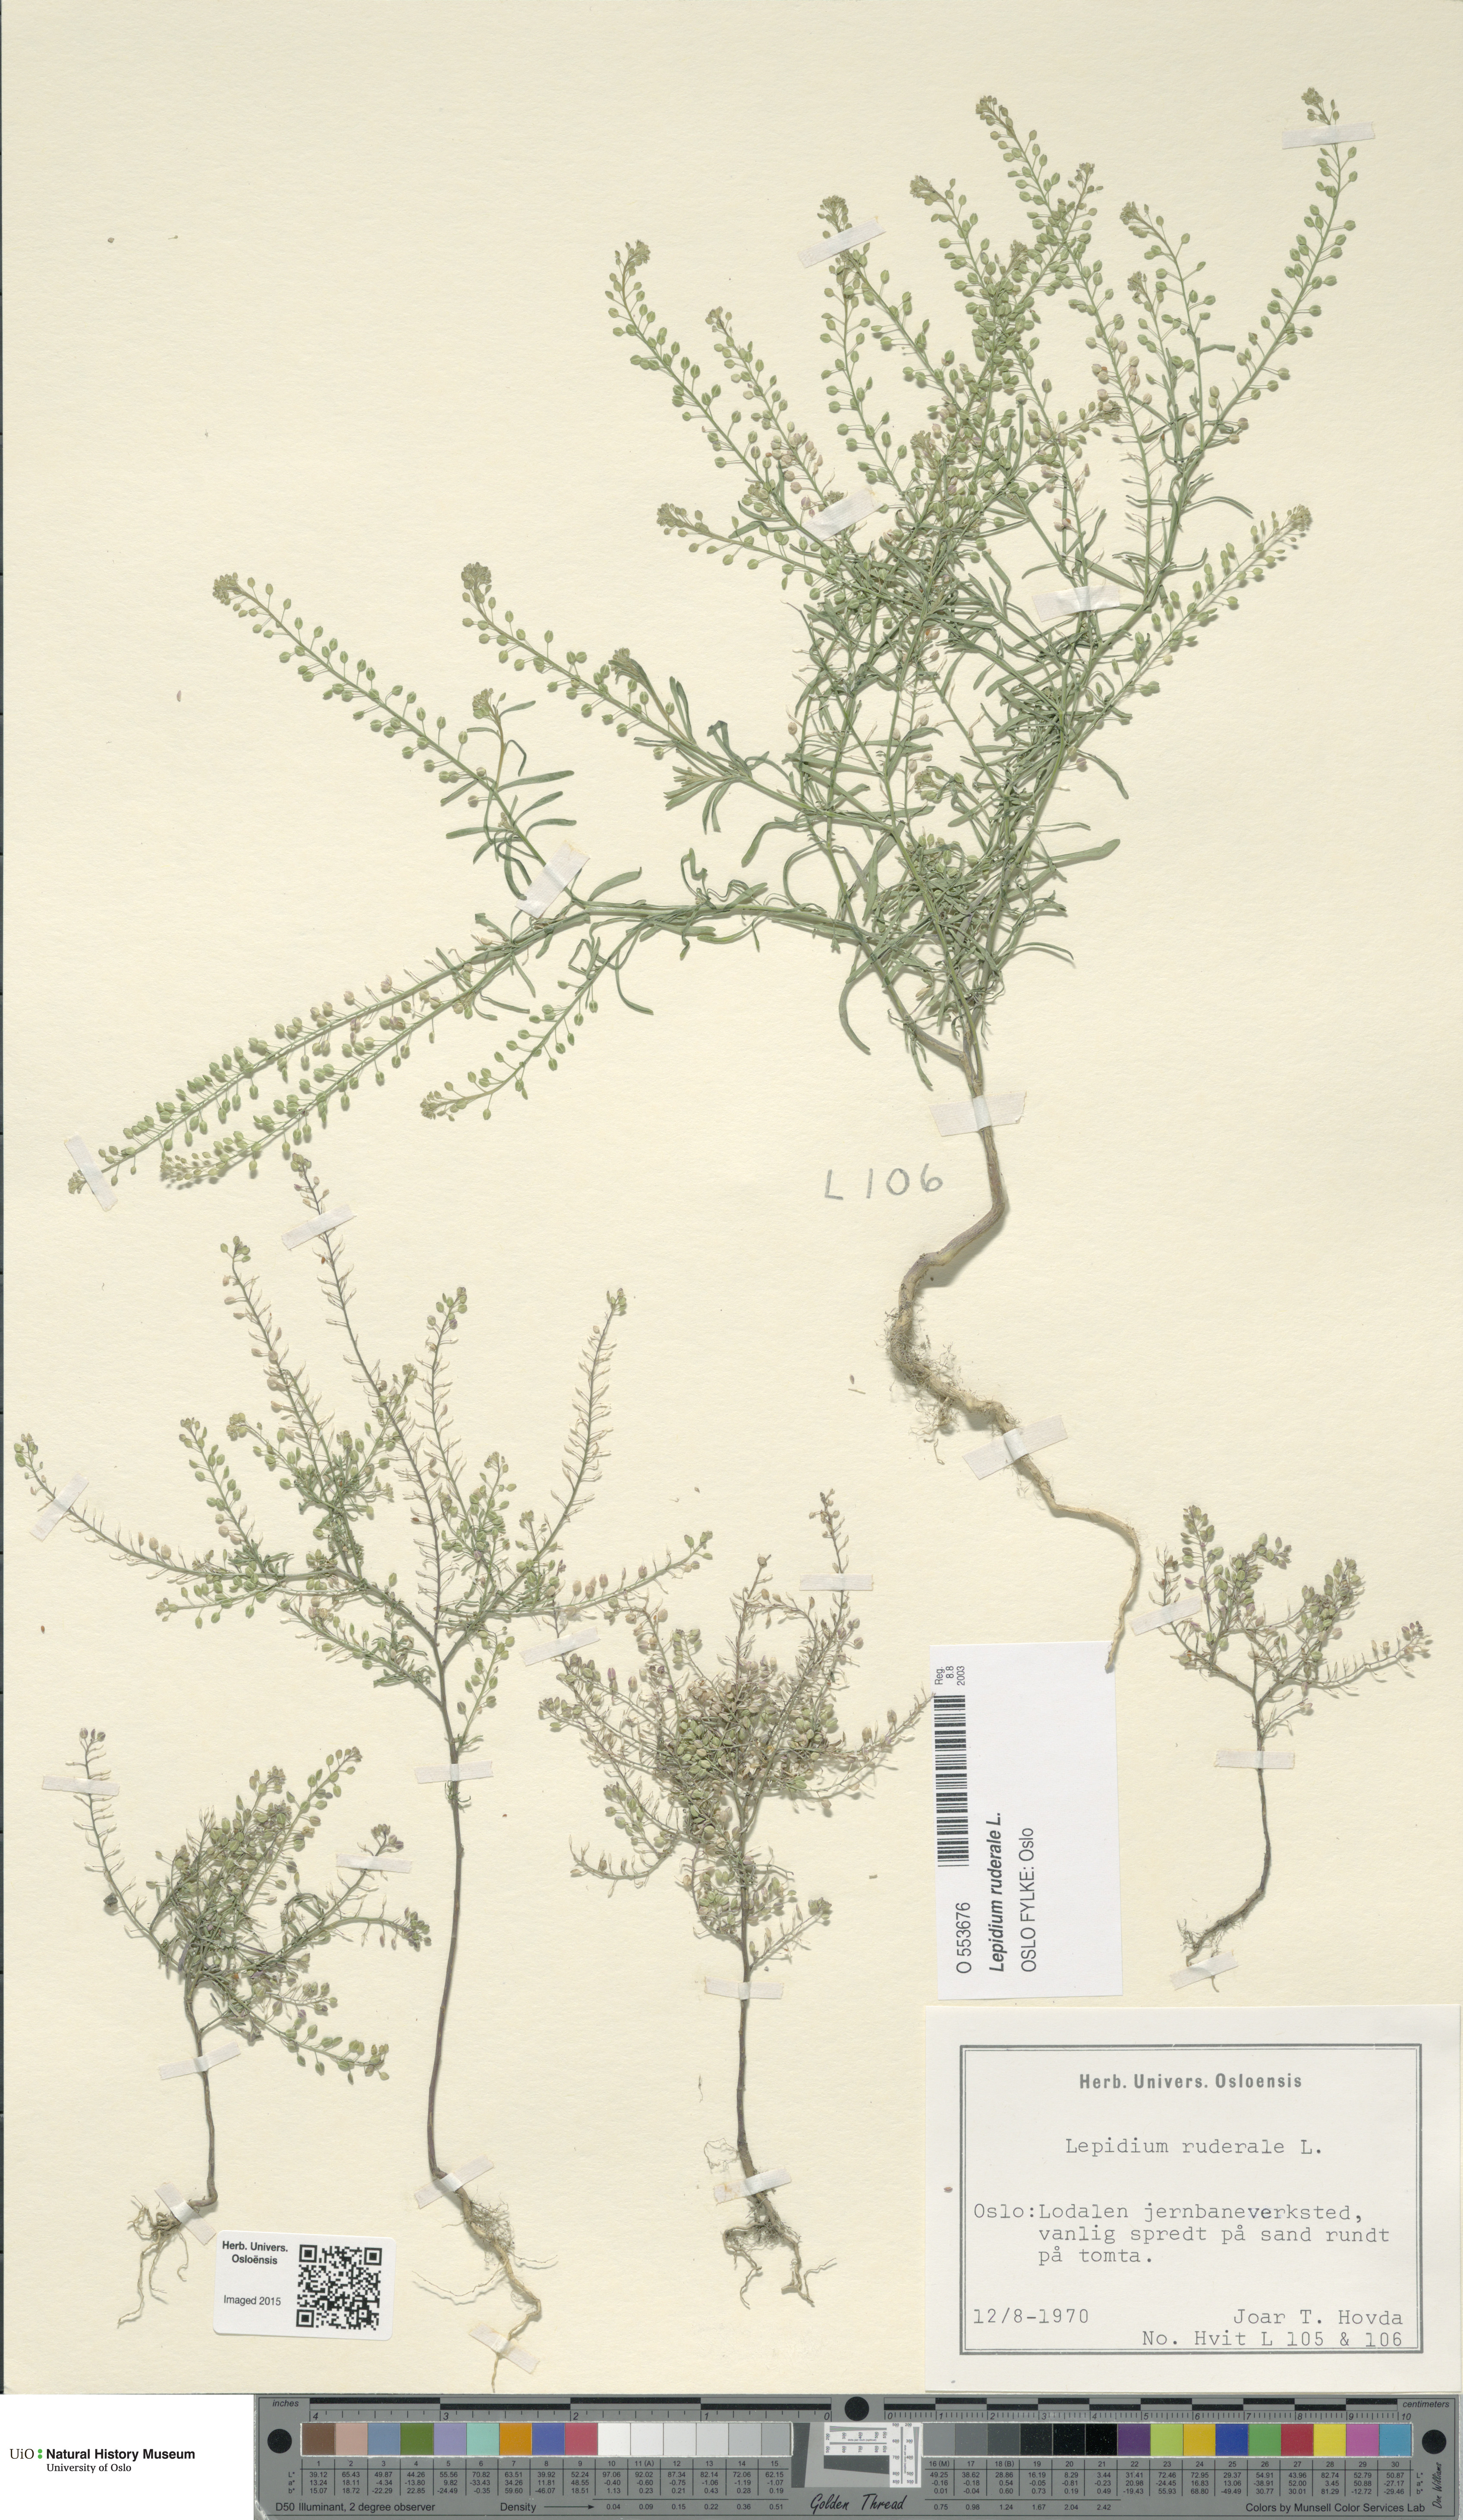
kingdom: Plantae
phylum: Tracheophyta
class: Magnoliopsida
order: Brassicales
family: Brassicaceae
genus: Lepidium
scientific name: Lepidium ruderale
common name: Narrow-leaved pepperwort
